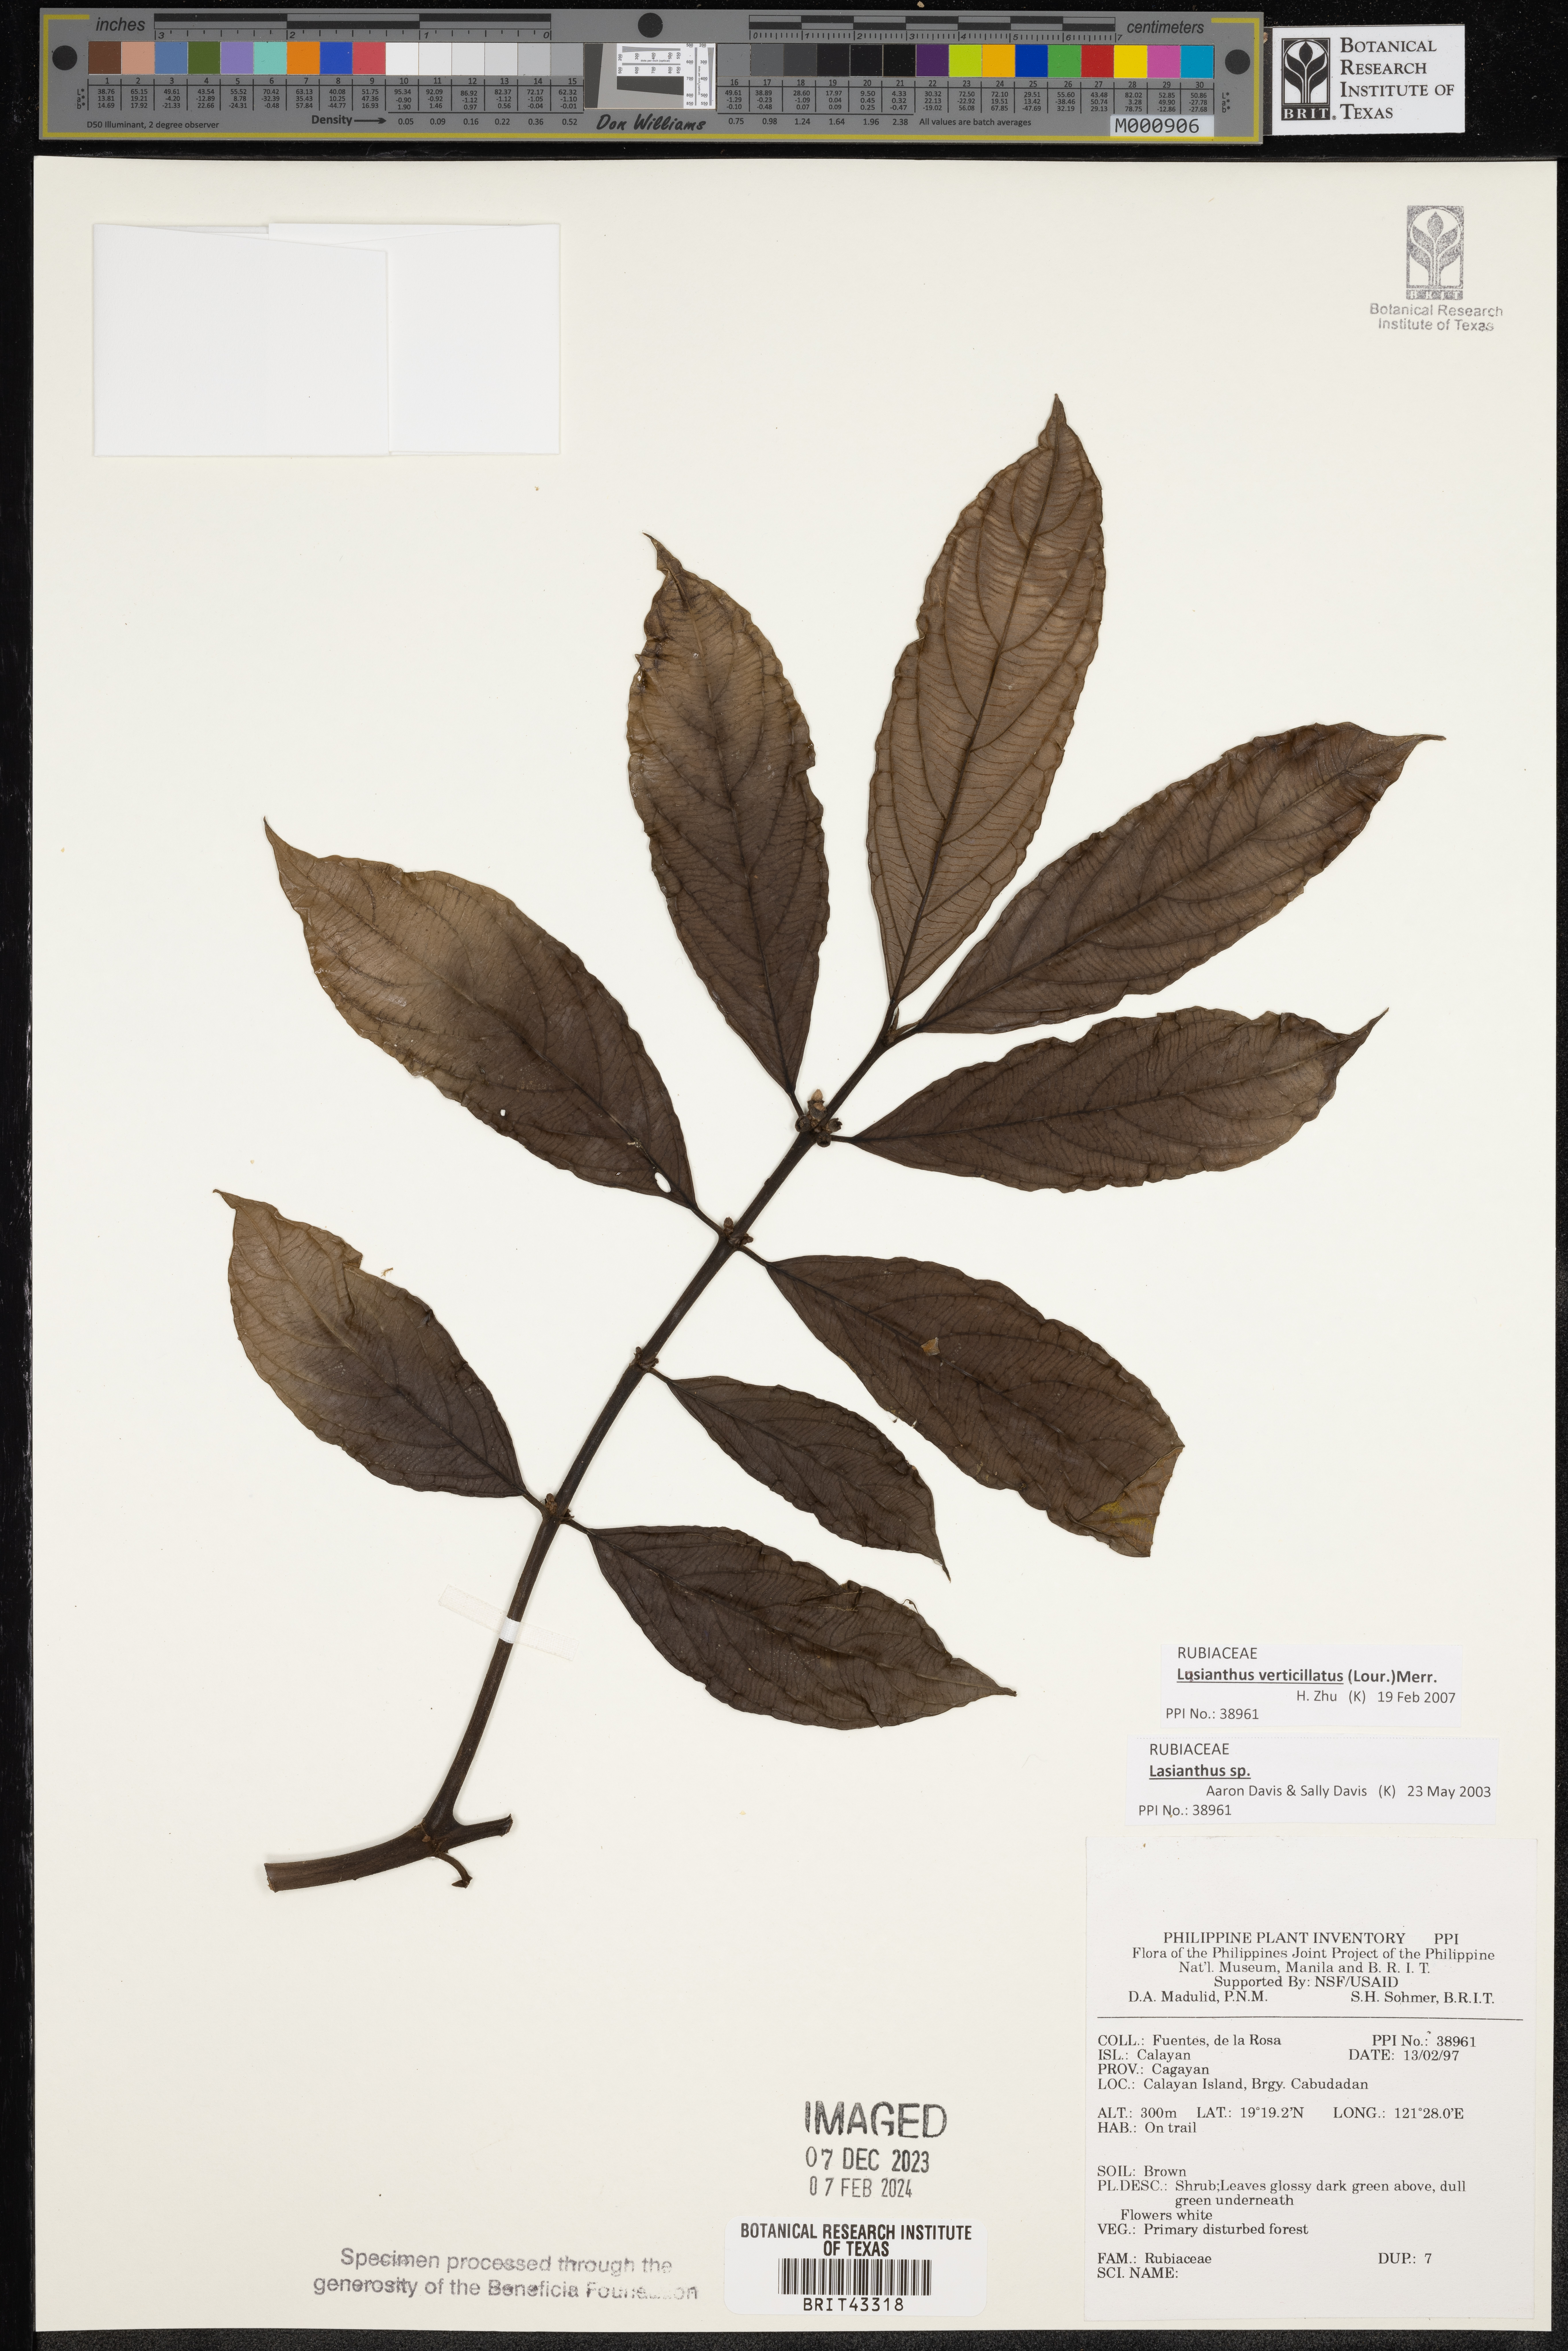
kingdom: Plantae
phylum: Tracheophyta
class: Magnoliopsida
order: Gentianales
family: Rubiaceae
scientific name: Rubiaceae
